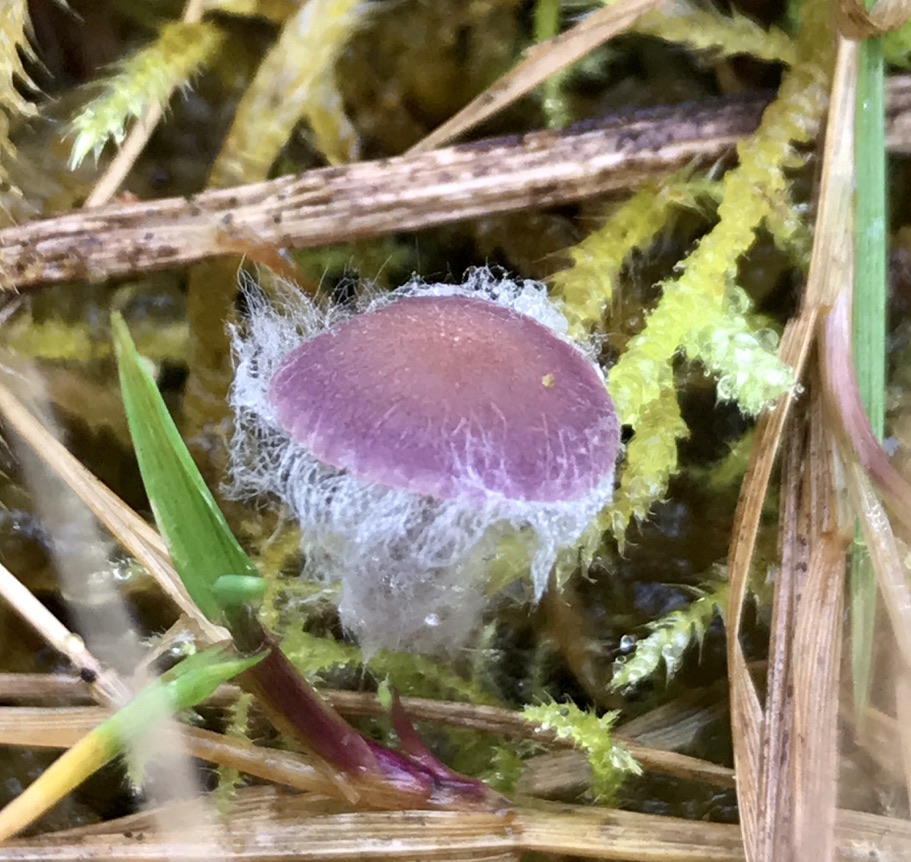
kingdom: Fungi
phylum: Basidiomycota
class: Agaricomycetes
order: Agaricales
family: Hydnangiaceae
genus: Laccaria
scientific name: Laccaria amethystina
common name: violet ametysthat
